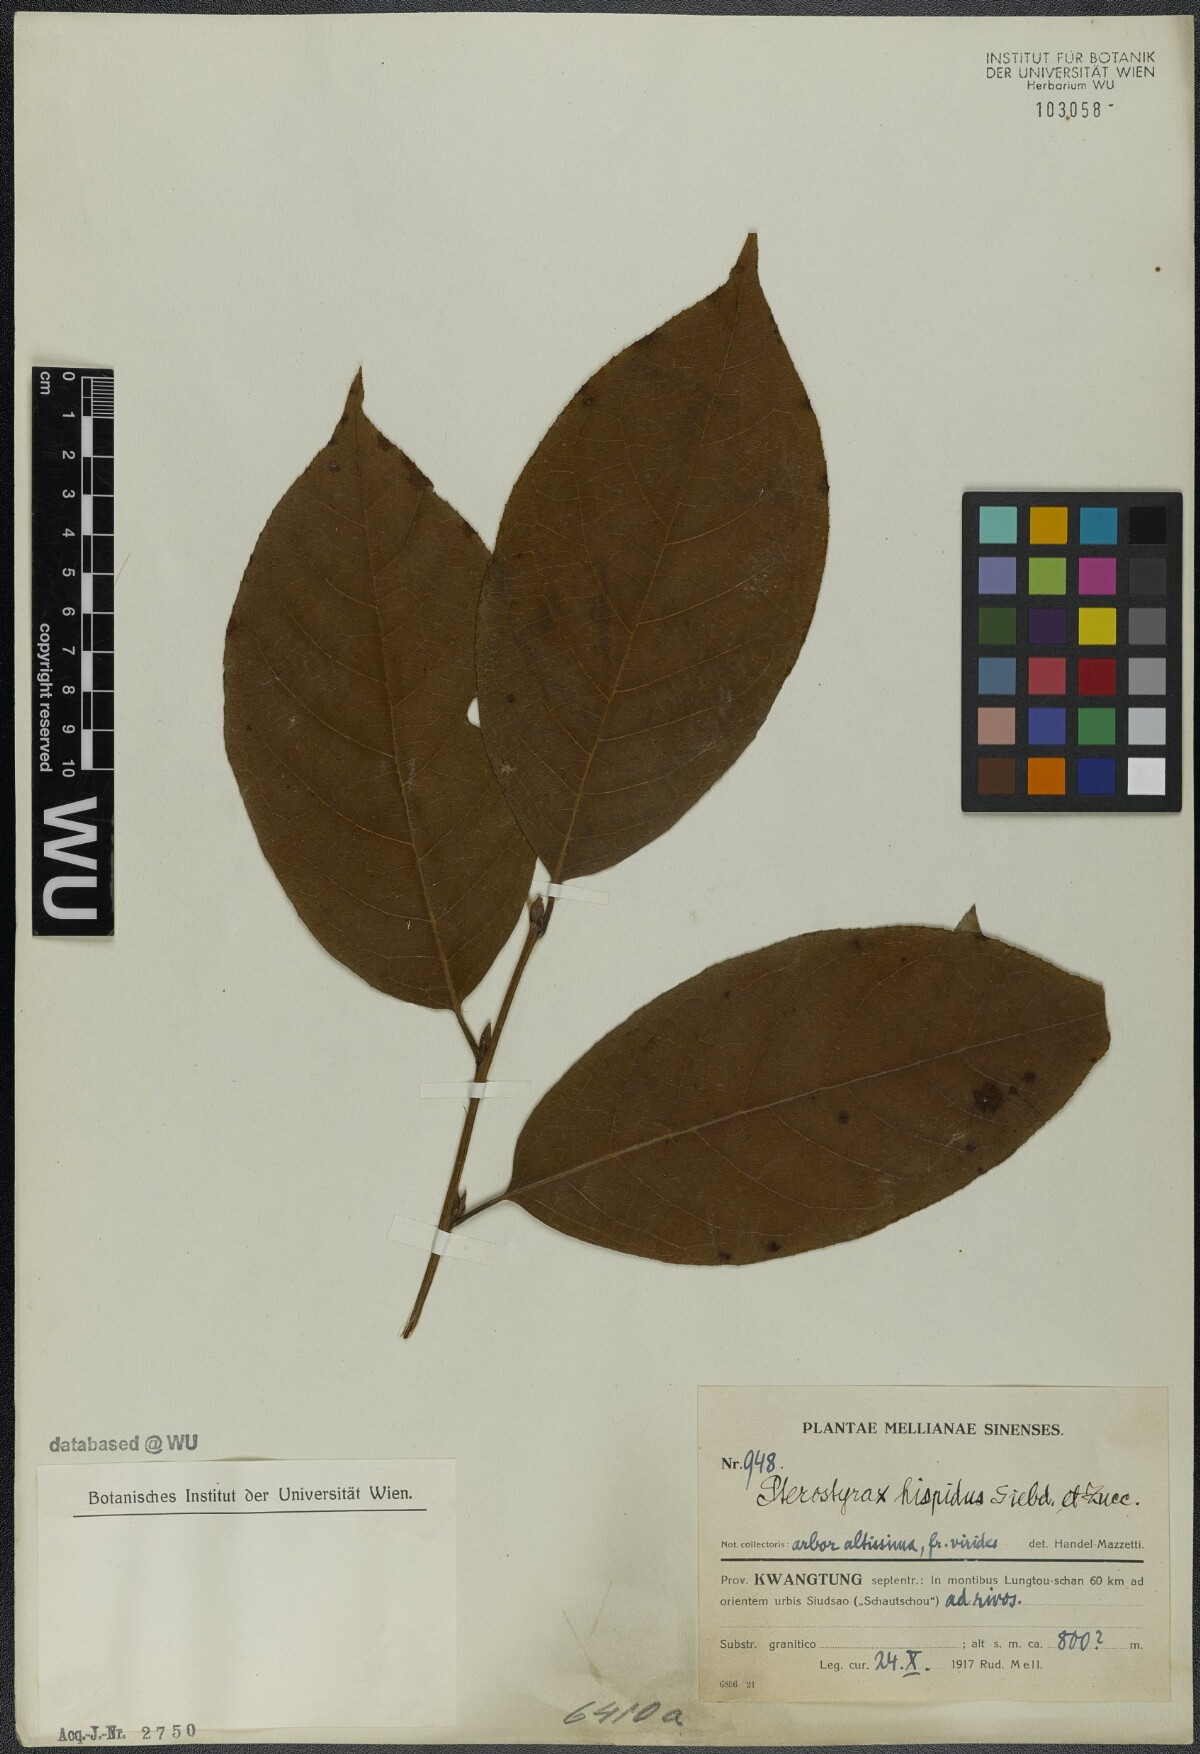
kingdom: Plantae
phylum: Tracheophyta
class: Magnoliopsida
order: Ericales
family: Styracaceae
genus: Pterostyrax
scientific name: Pterostyrax hispidus
